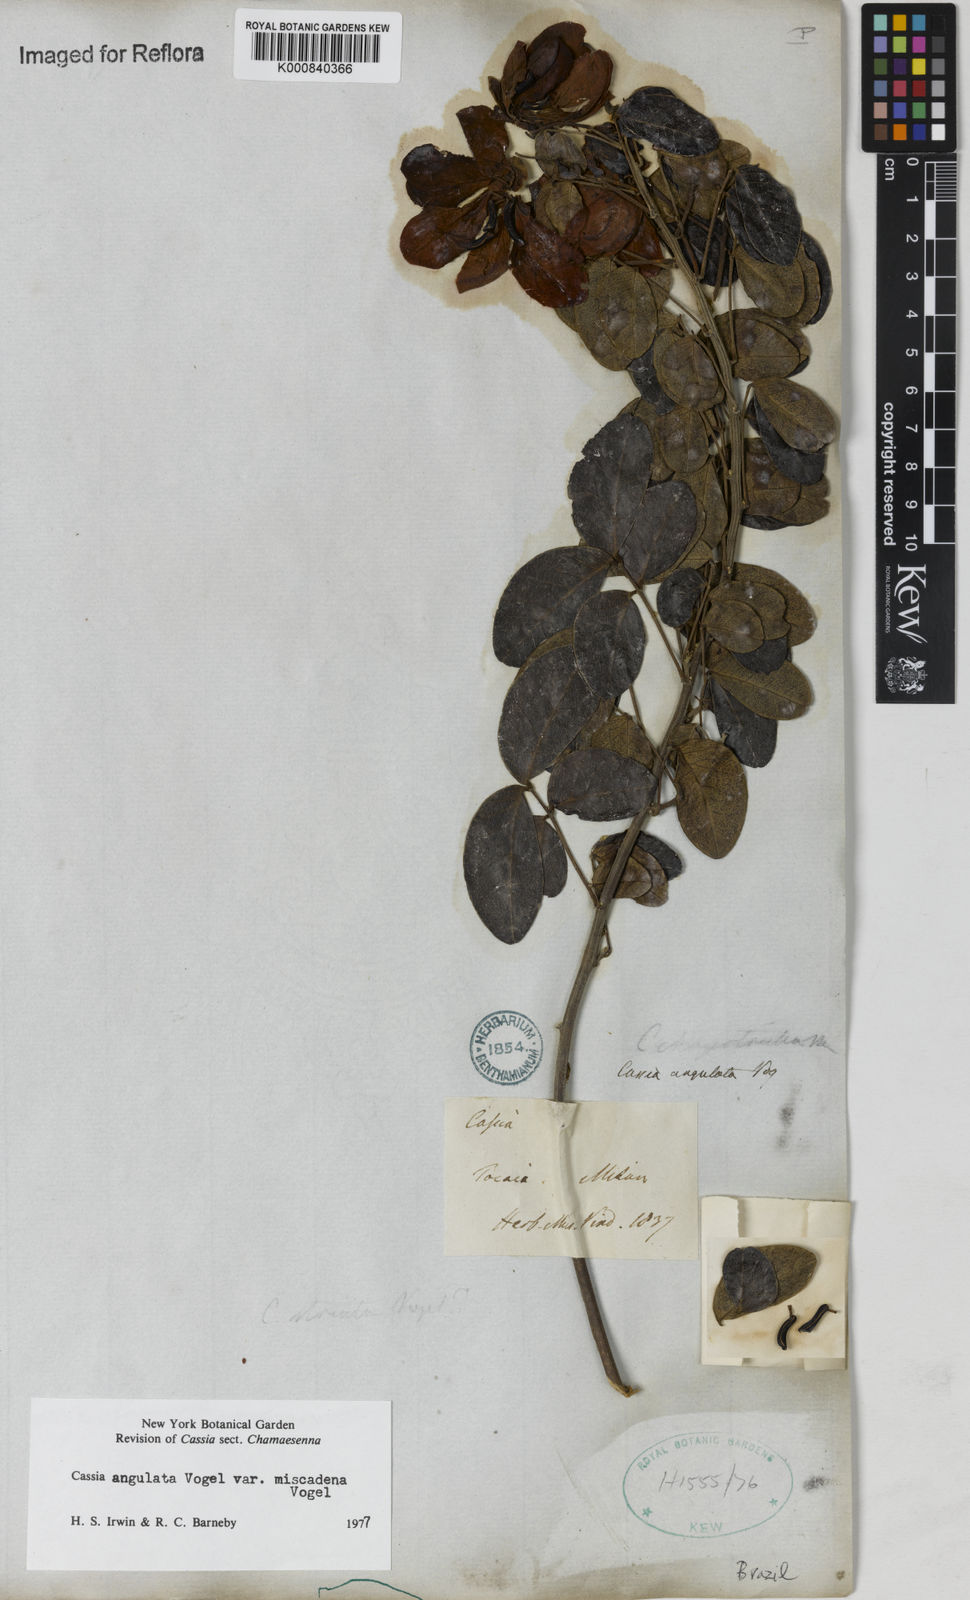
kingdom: Plantae
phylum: Tracheophyta
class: Magnoliopsida
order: Fabales
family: Fabaceae
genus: Senna
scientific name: Senna angulata
